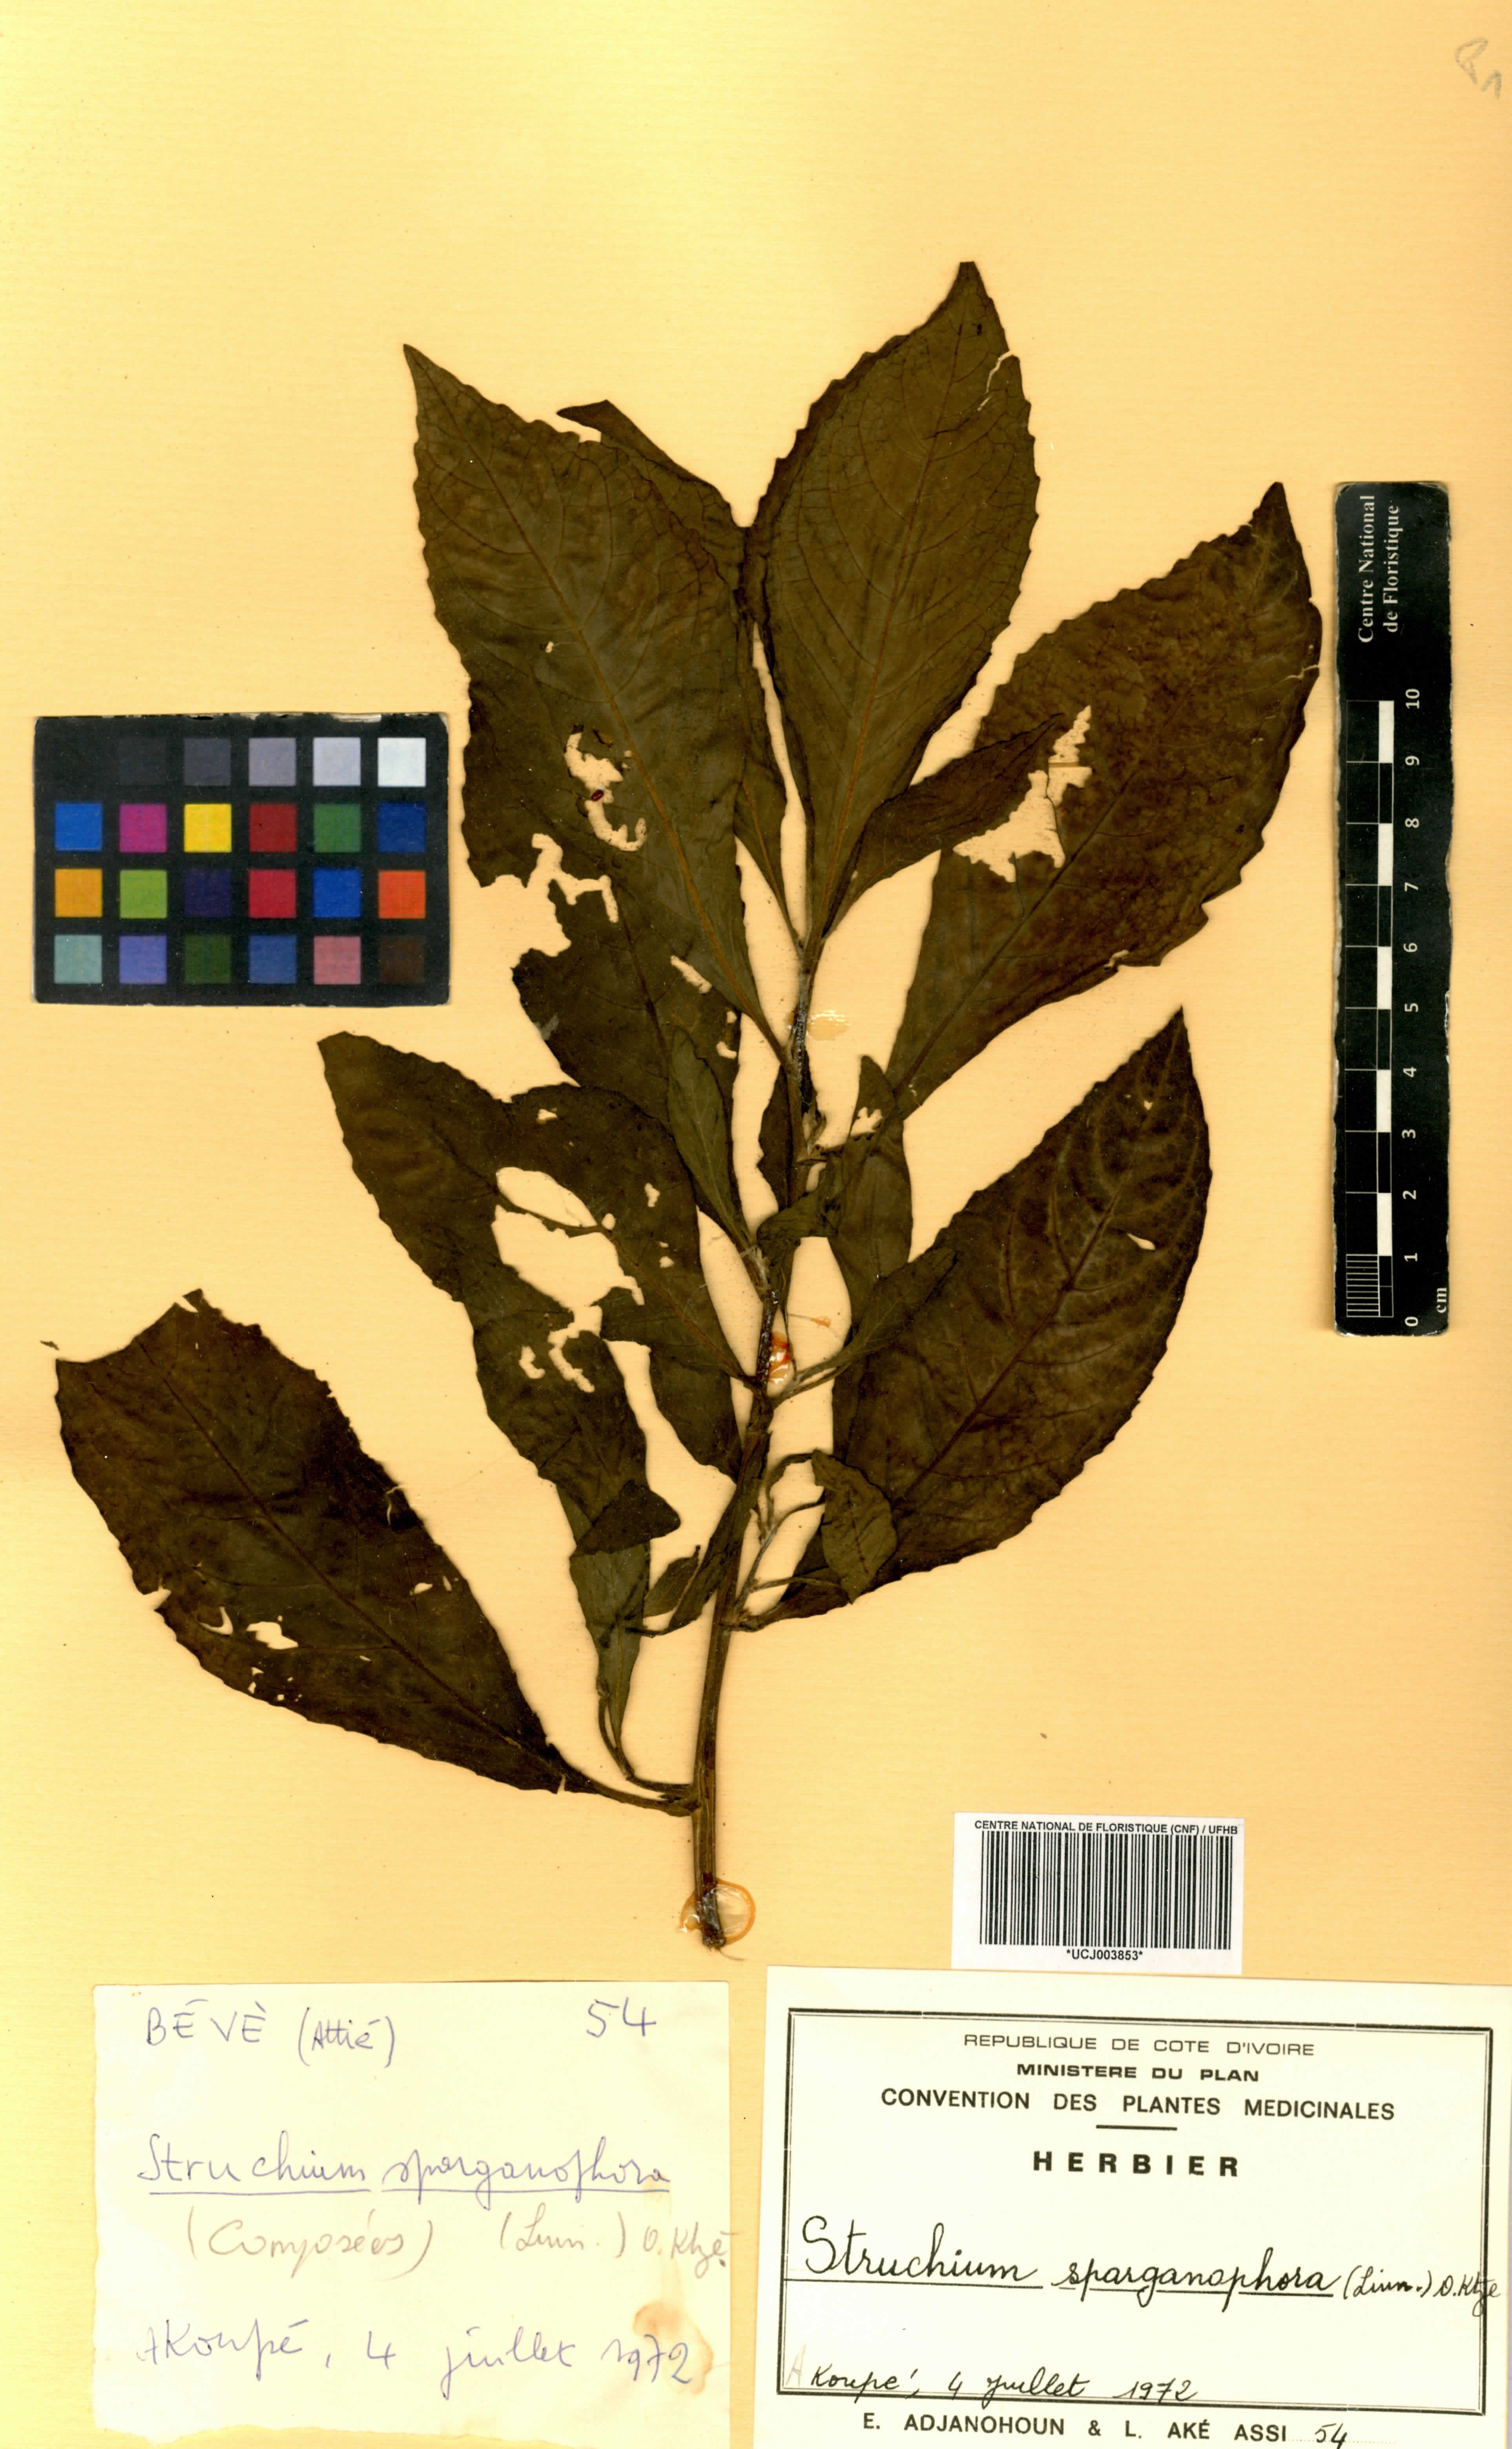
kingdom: Plantae
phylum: Tracheophyta
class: Magnoliopsida
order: Asterales
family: Asteraceae
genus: Struchium
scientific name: Struchium sparganophorum
